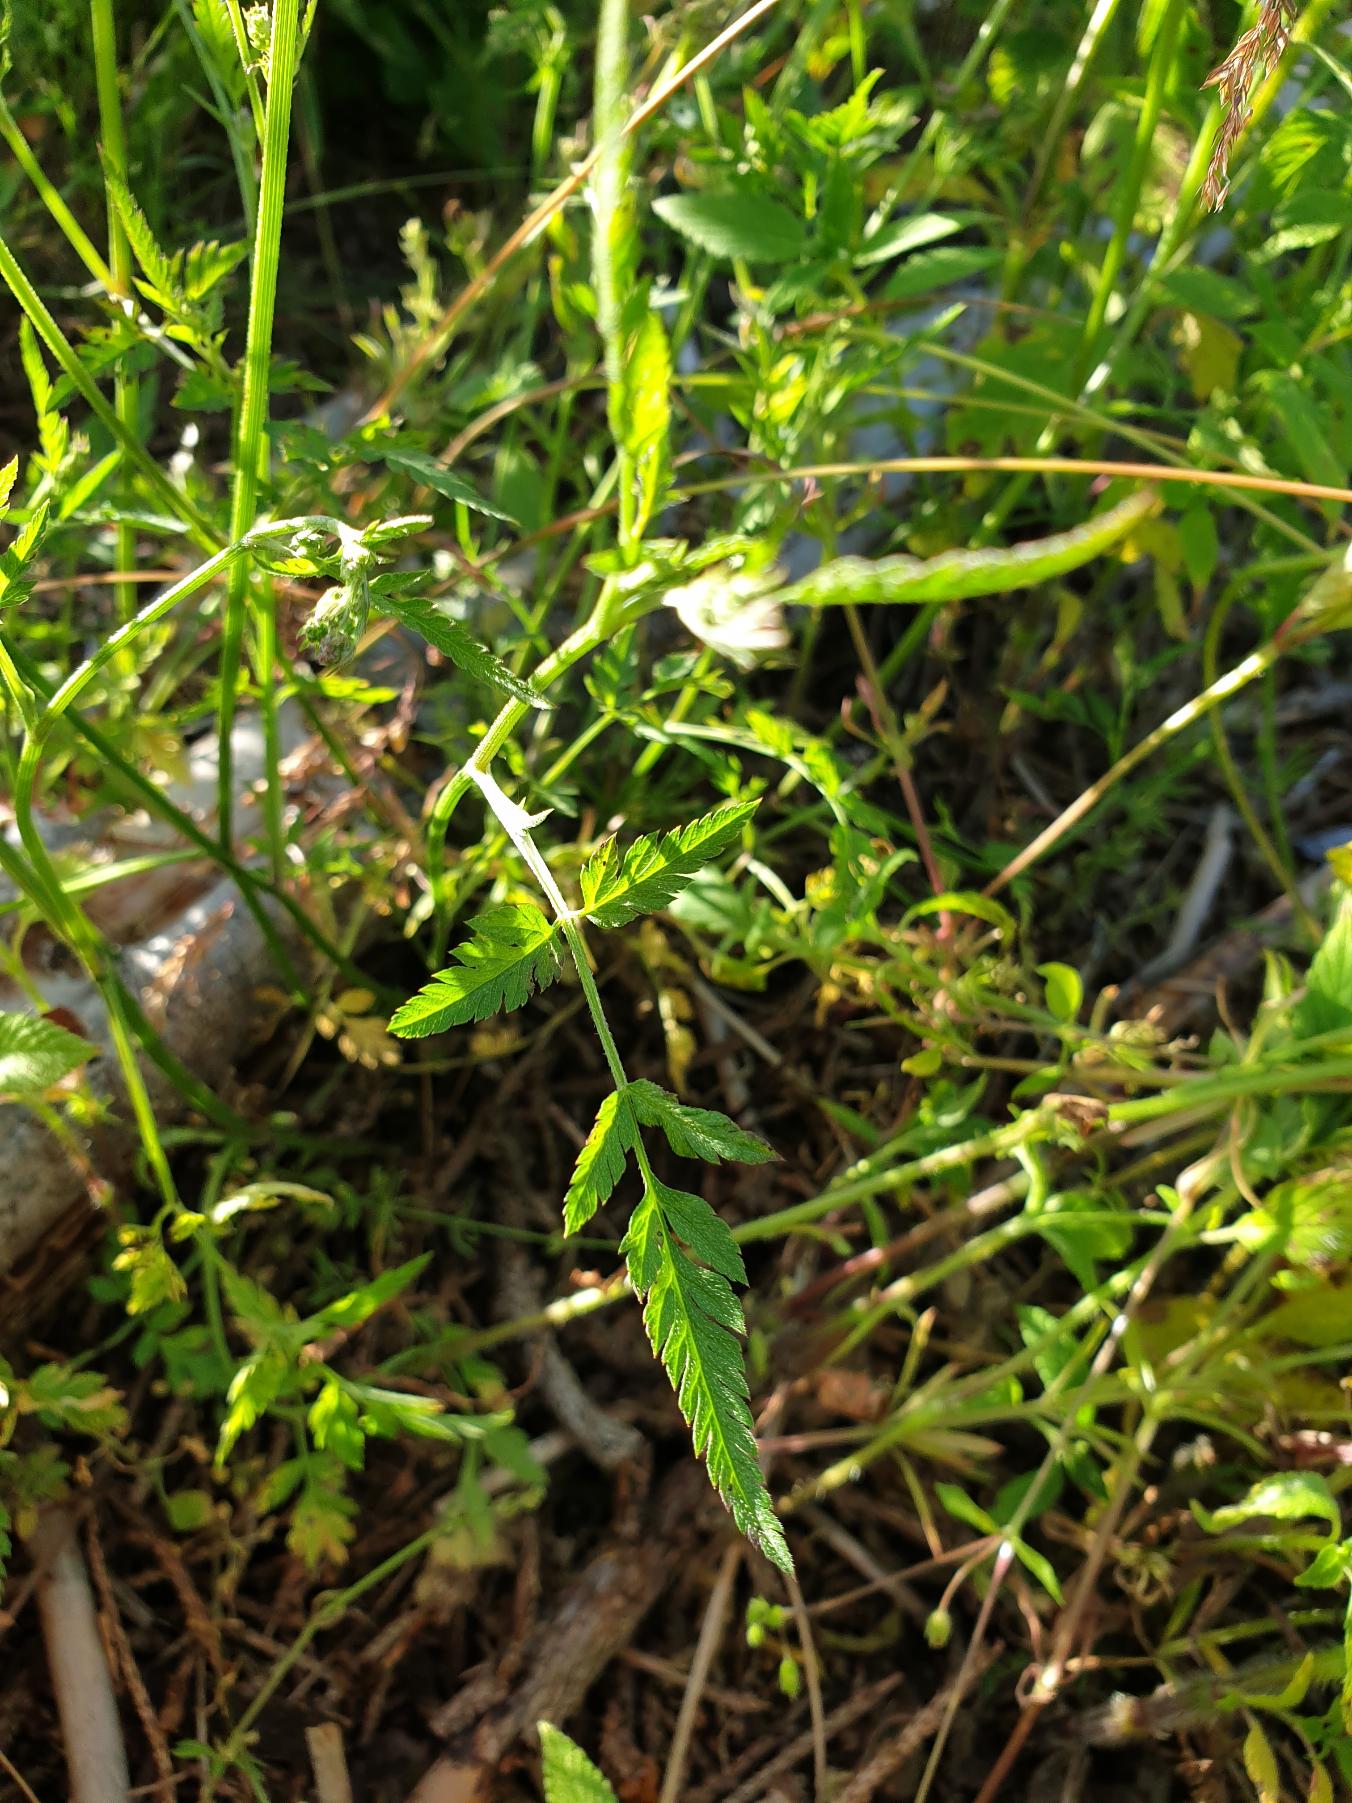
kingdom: Plantae
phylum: Tracheophyta
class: Magnoliopsida
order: Apiales
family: Apiaceae
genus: Torilis
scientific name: Torilis japonica
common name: Hvas randfrø
